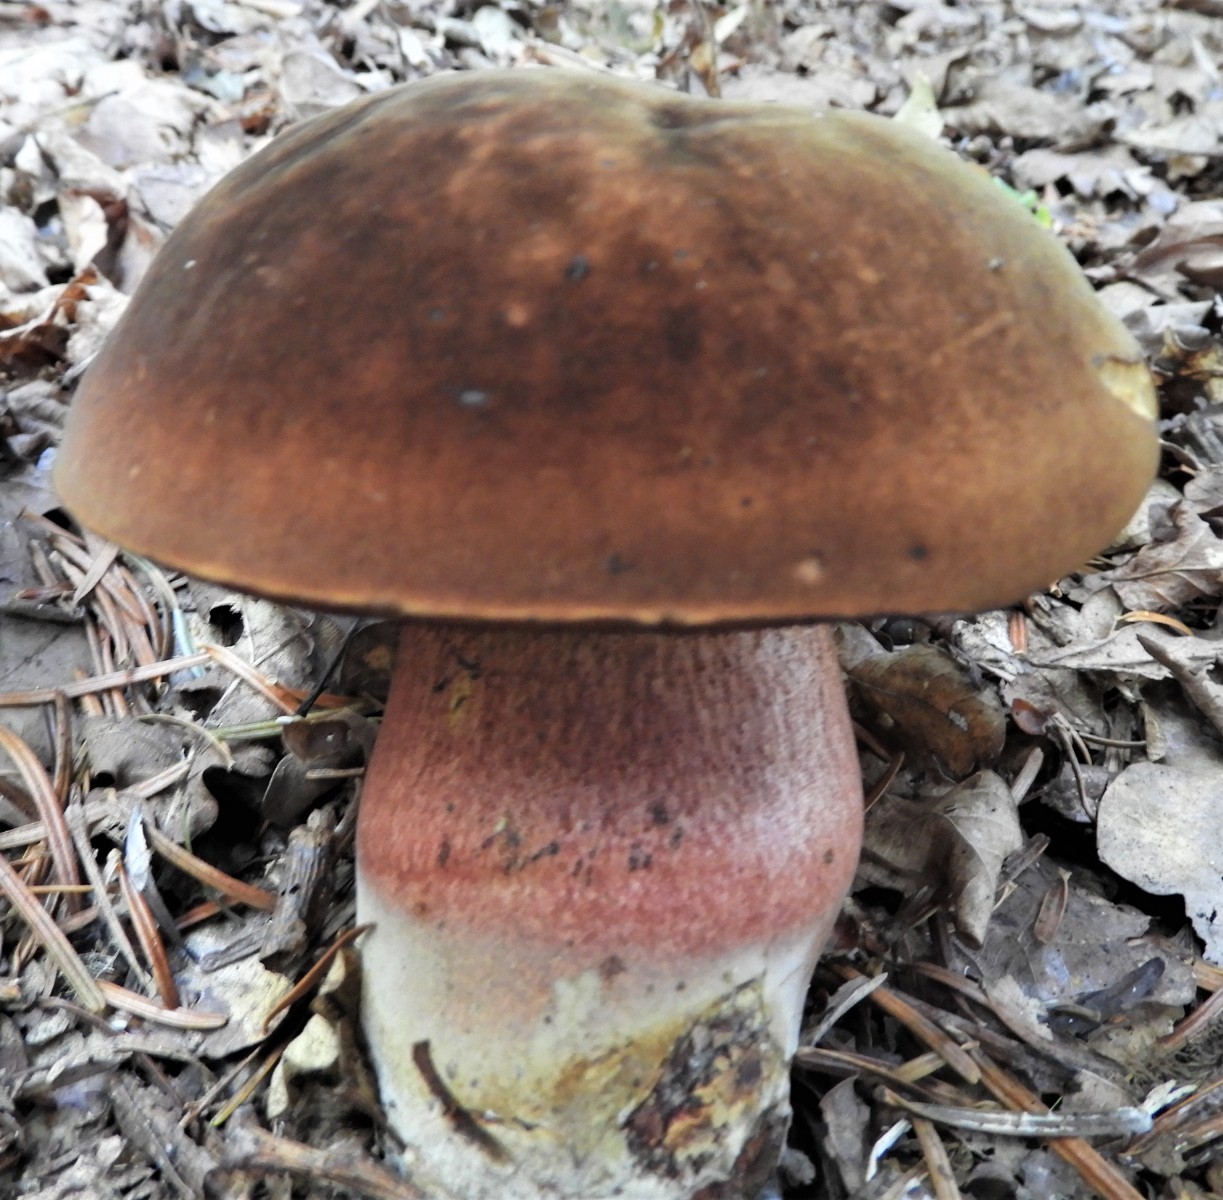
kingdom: Fungi
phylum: Basidiomycota
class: Agaricomycetes
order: Boletales
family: Boletaceae
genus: Neoboletus
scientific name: Neoboletus erythropus
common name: punktstokket indigorørhat
